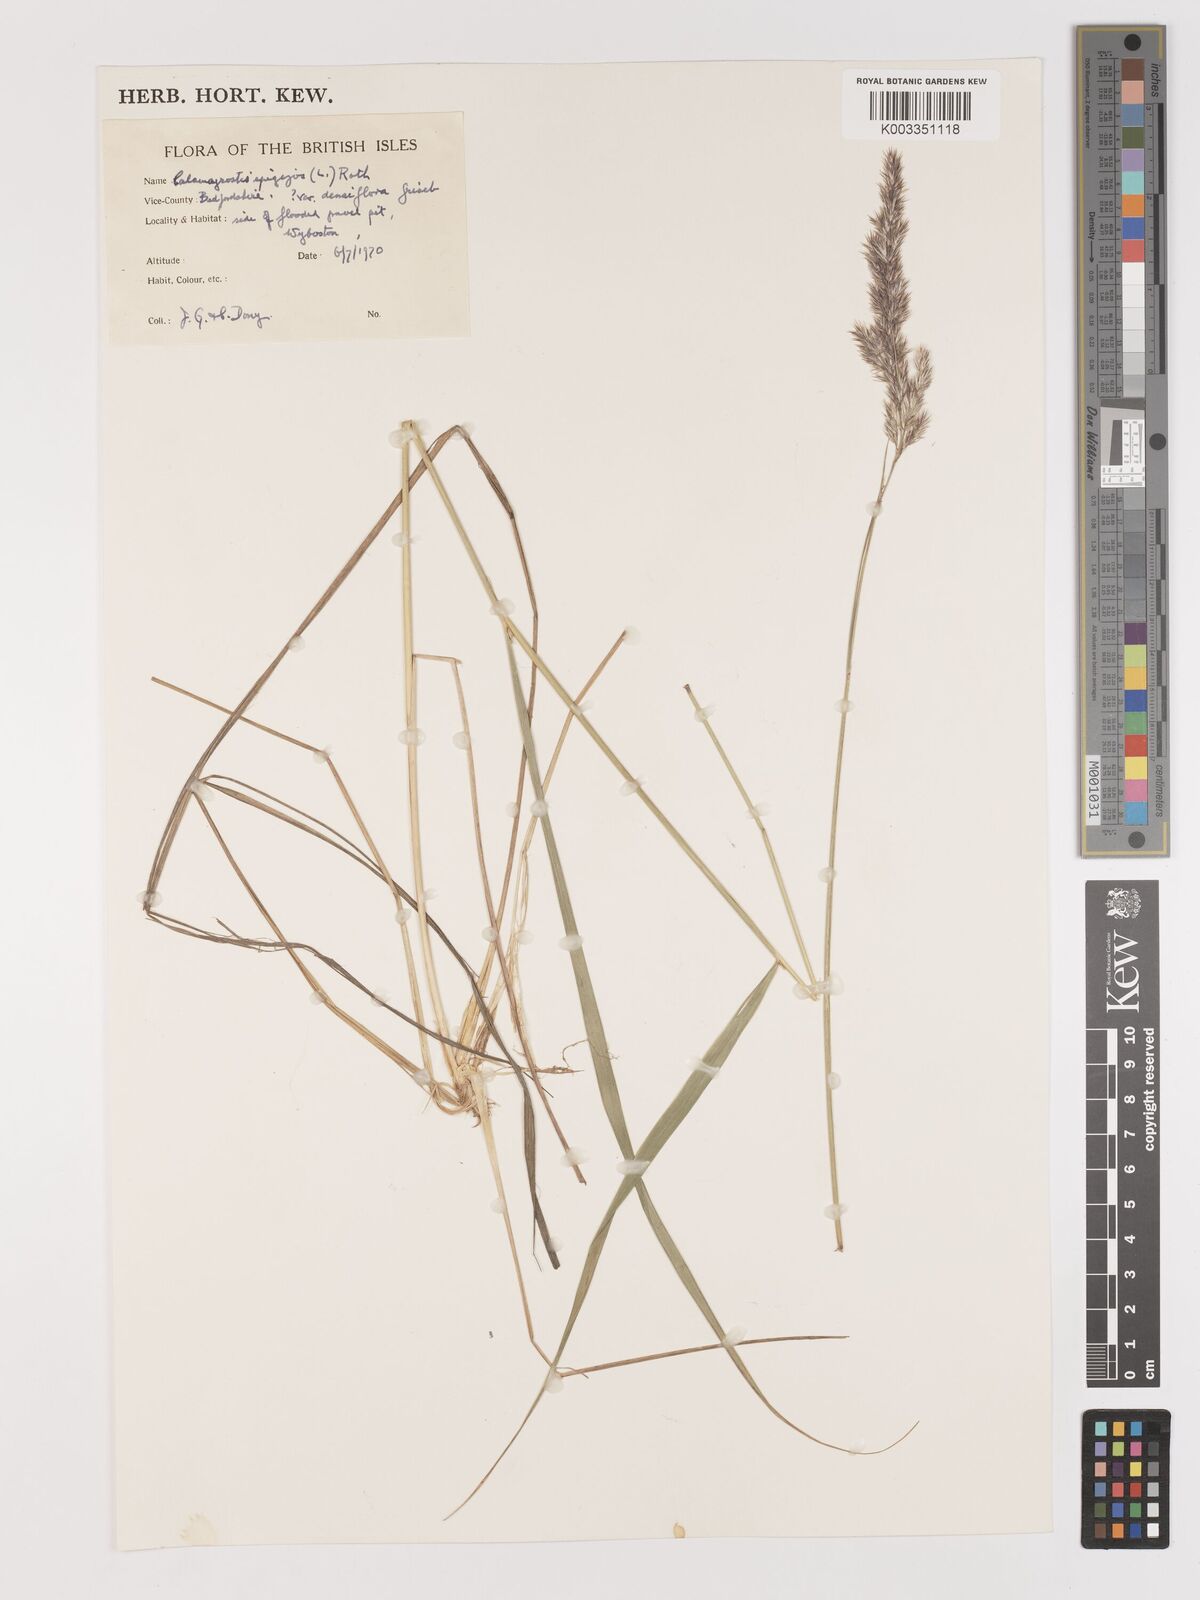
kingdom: Plantae
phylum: Tracheophyta
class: Liliopsida
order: Poales
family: Poaceae
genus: Calamagrostis
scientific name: Calamagrostis
